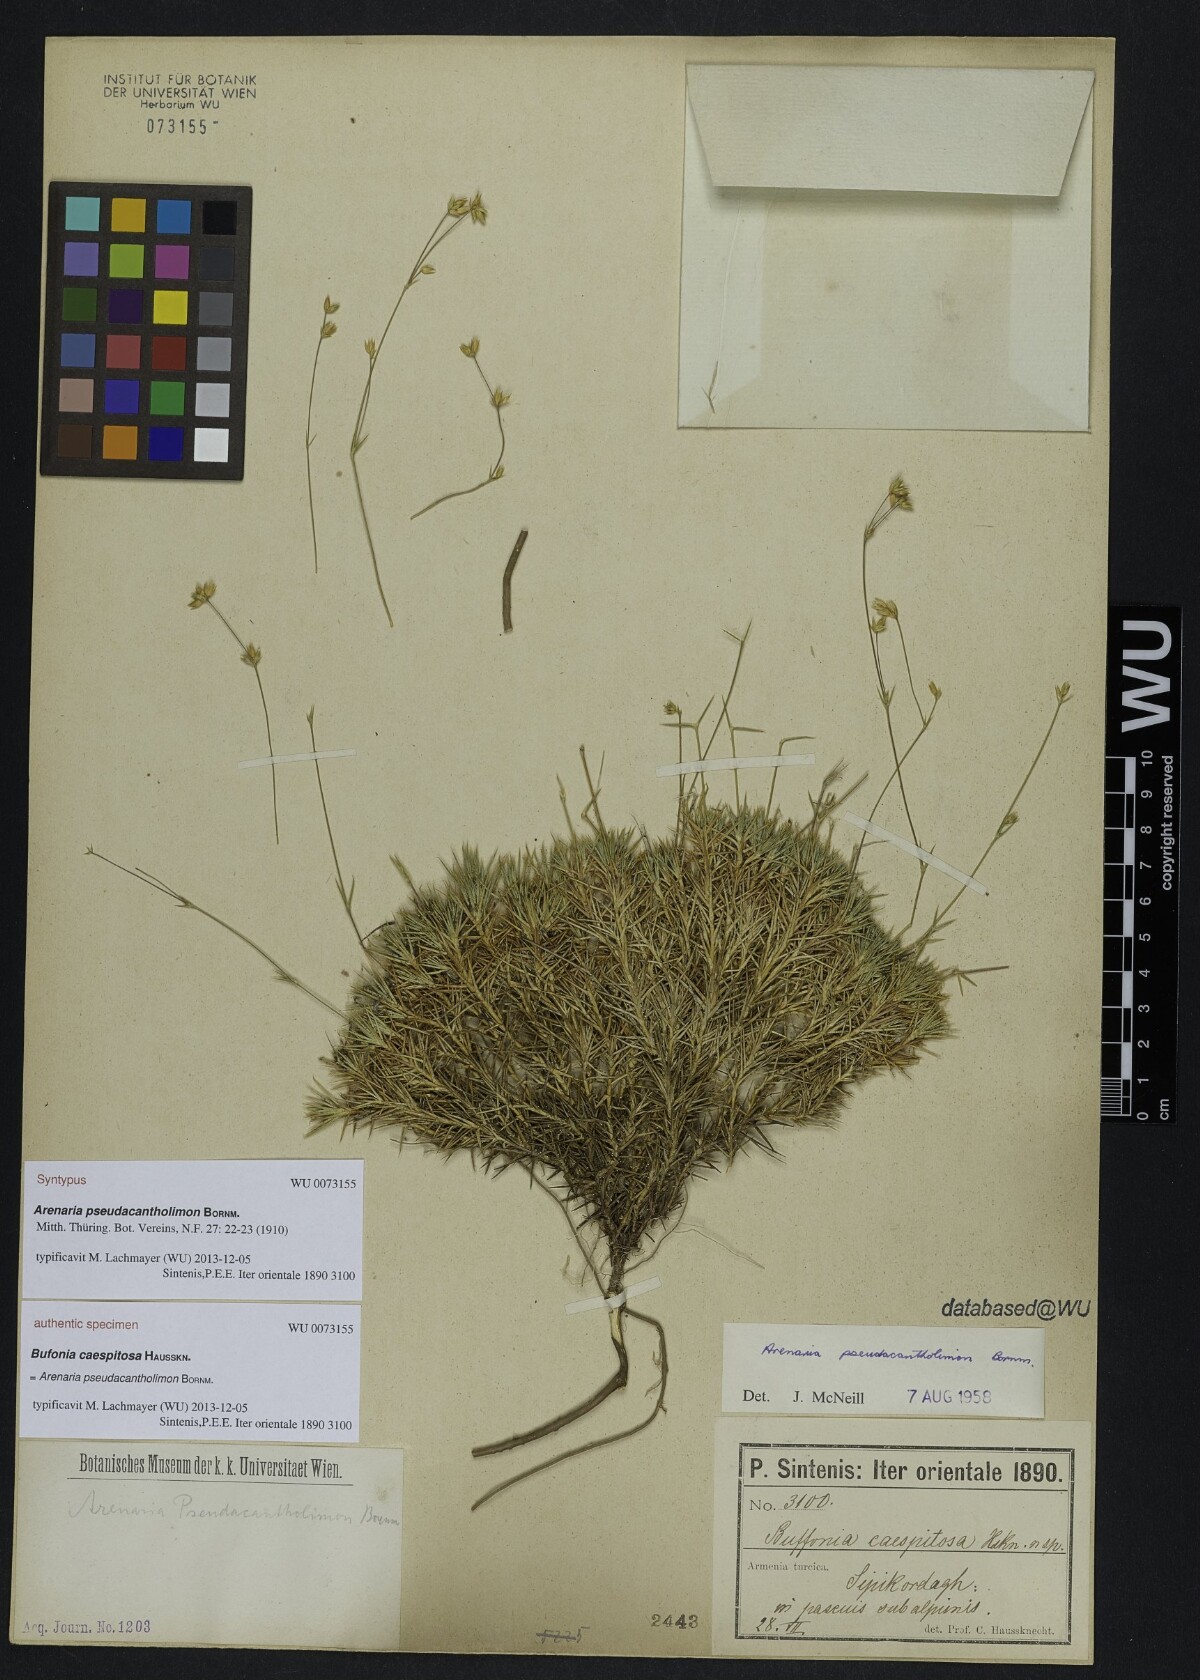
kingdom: Plantae
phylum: Tracheophyta
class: Magnoliopsida
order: Caryophyllales
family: Caryophyllaceae
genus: Eremogone
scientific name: Eremogone pseudacantholimon
